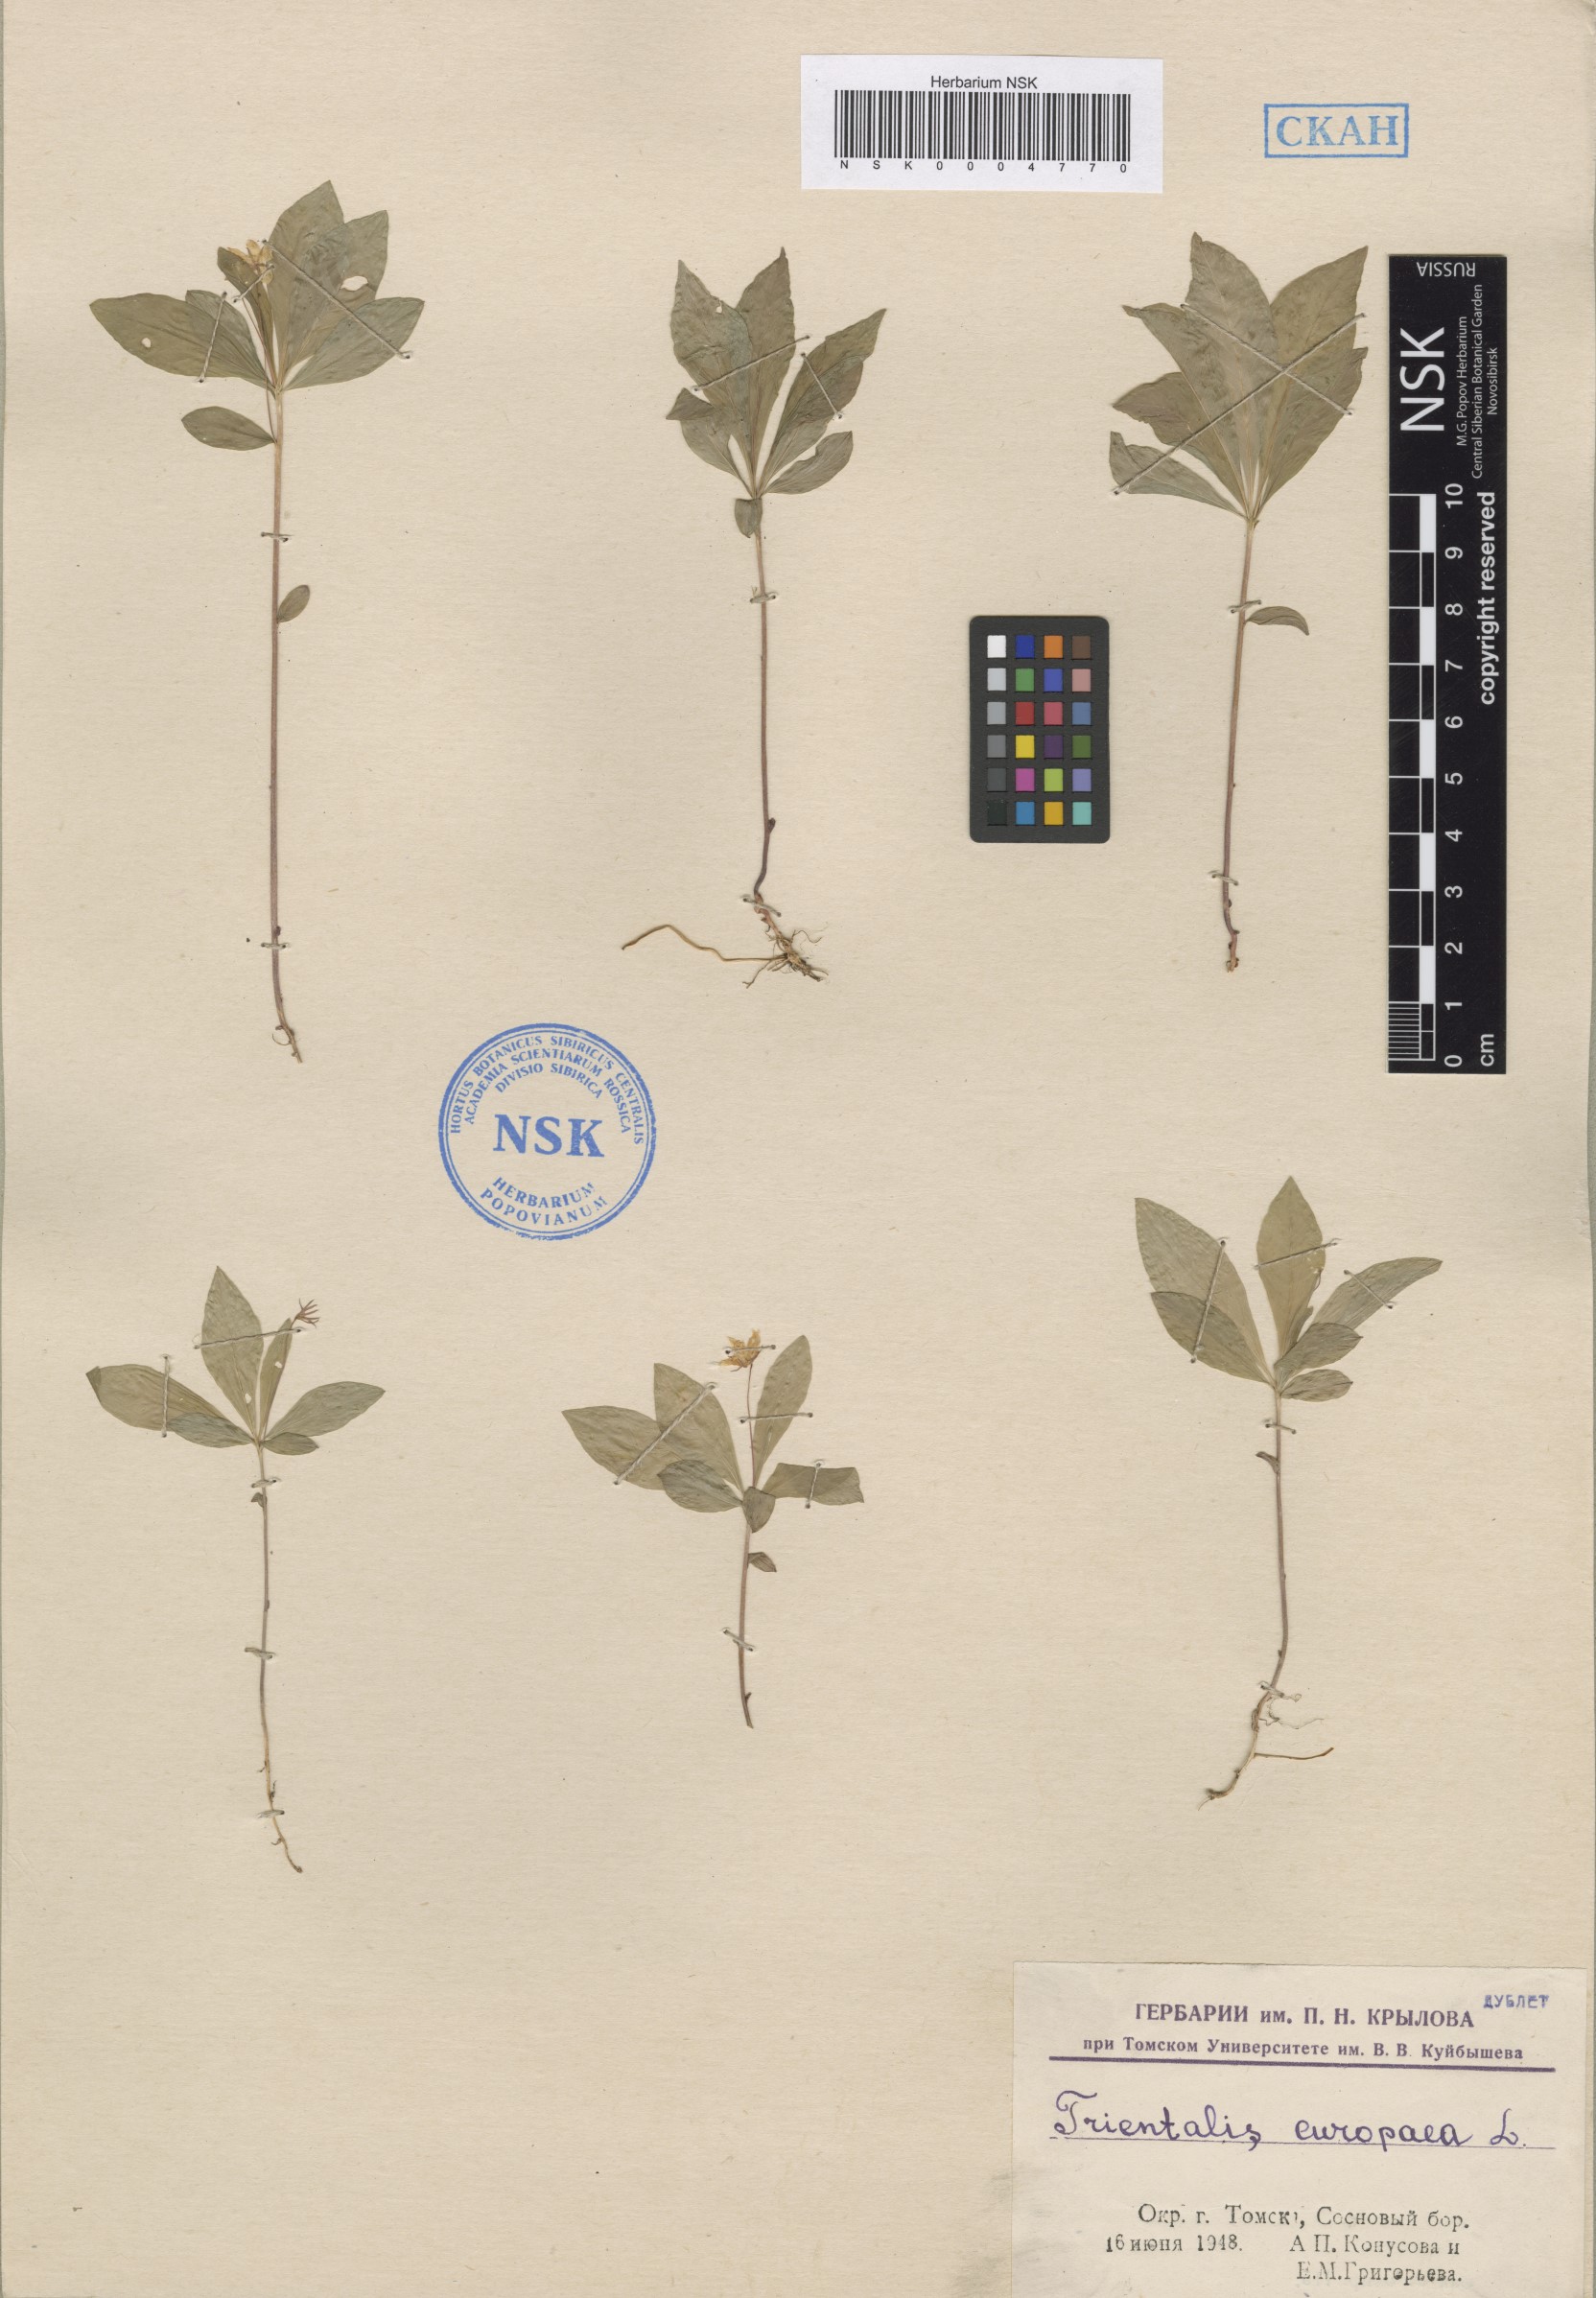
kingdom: Plantae
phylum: Tracheophyta
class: Magnoliopsida
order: Ericales
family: Primulaceae
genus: Lysimachia
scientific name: Lysimachia europaea
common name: Arctic starflower
